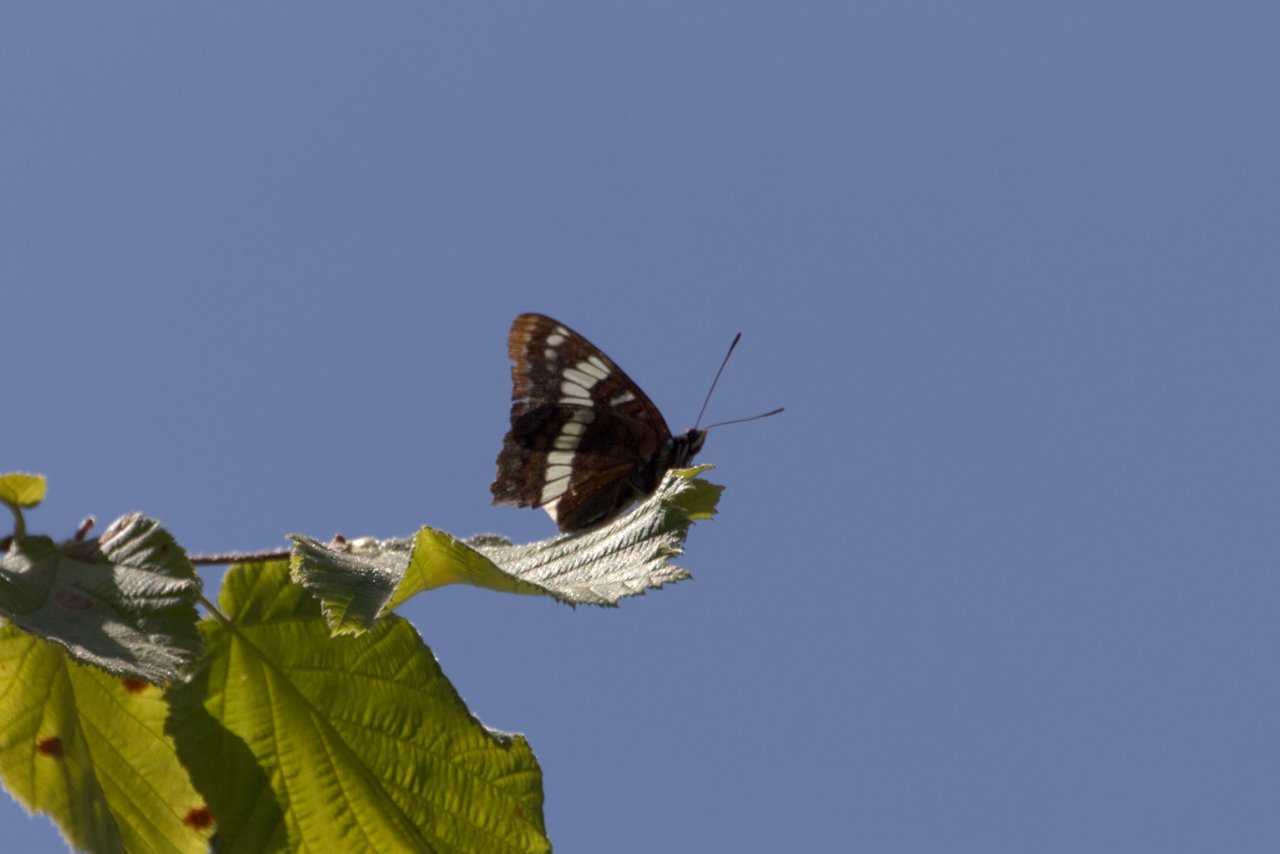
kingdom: Animalia
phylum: Arthropoda
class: Insecta
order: Lepidoptera
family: Nymphalidae
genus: Limenitis
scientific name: Limenitis lorquini
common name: Lorquin's Admiral
